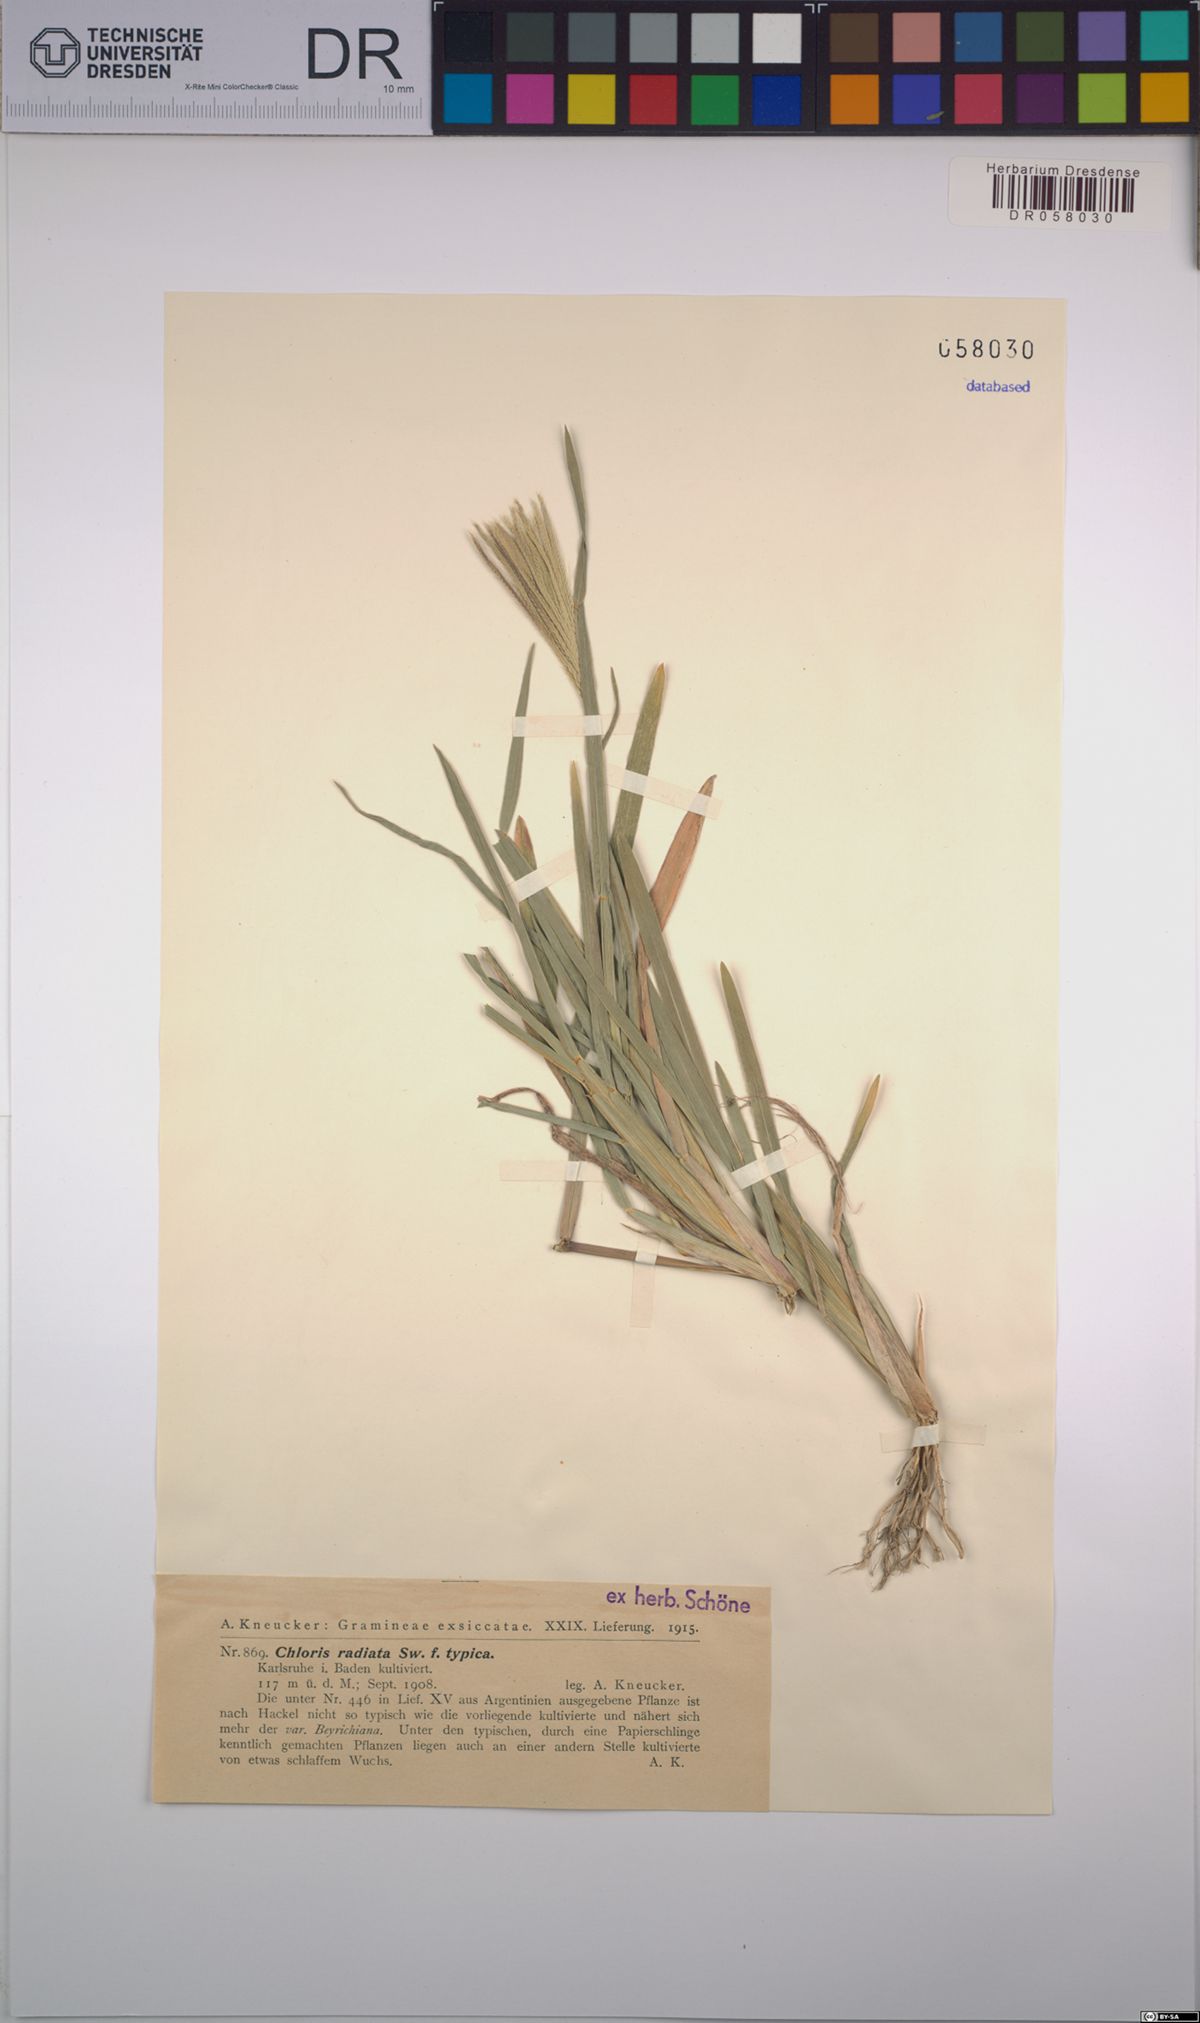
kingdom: Plantae
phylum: Tracheophyta
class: Liliopsida
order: Poales
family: Poaceae
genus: Chloris
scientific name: Chloris radiata
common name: Radiate fingergrass
